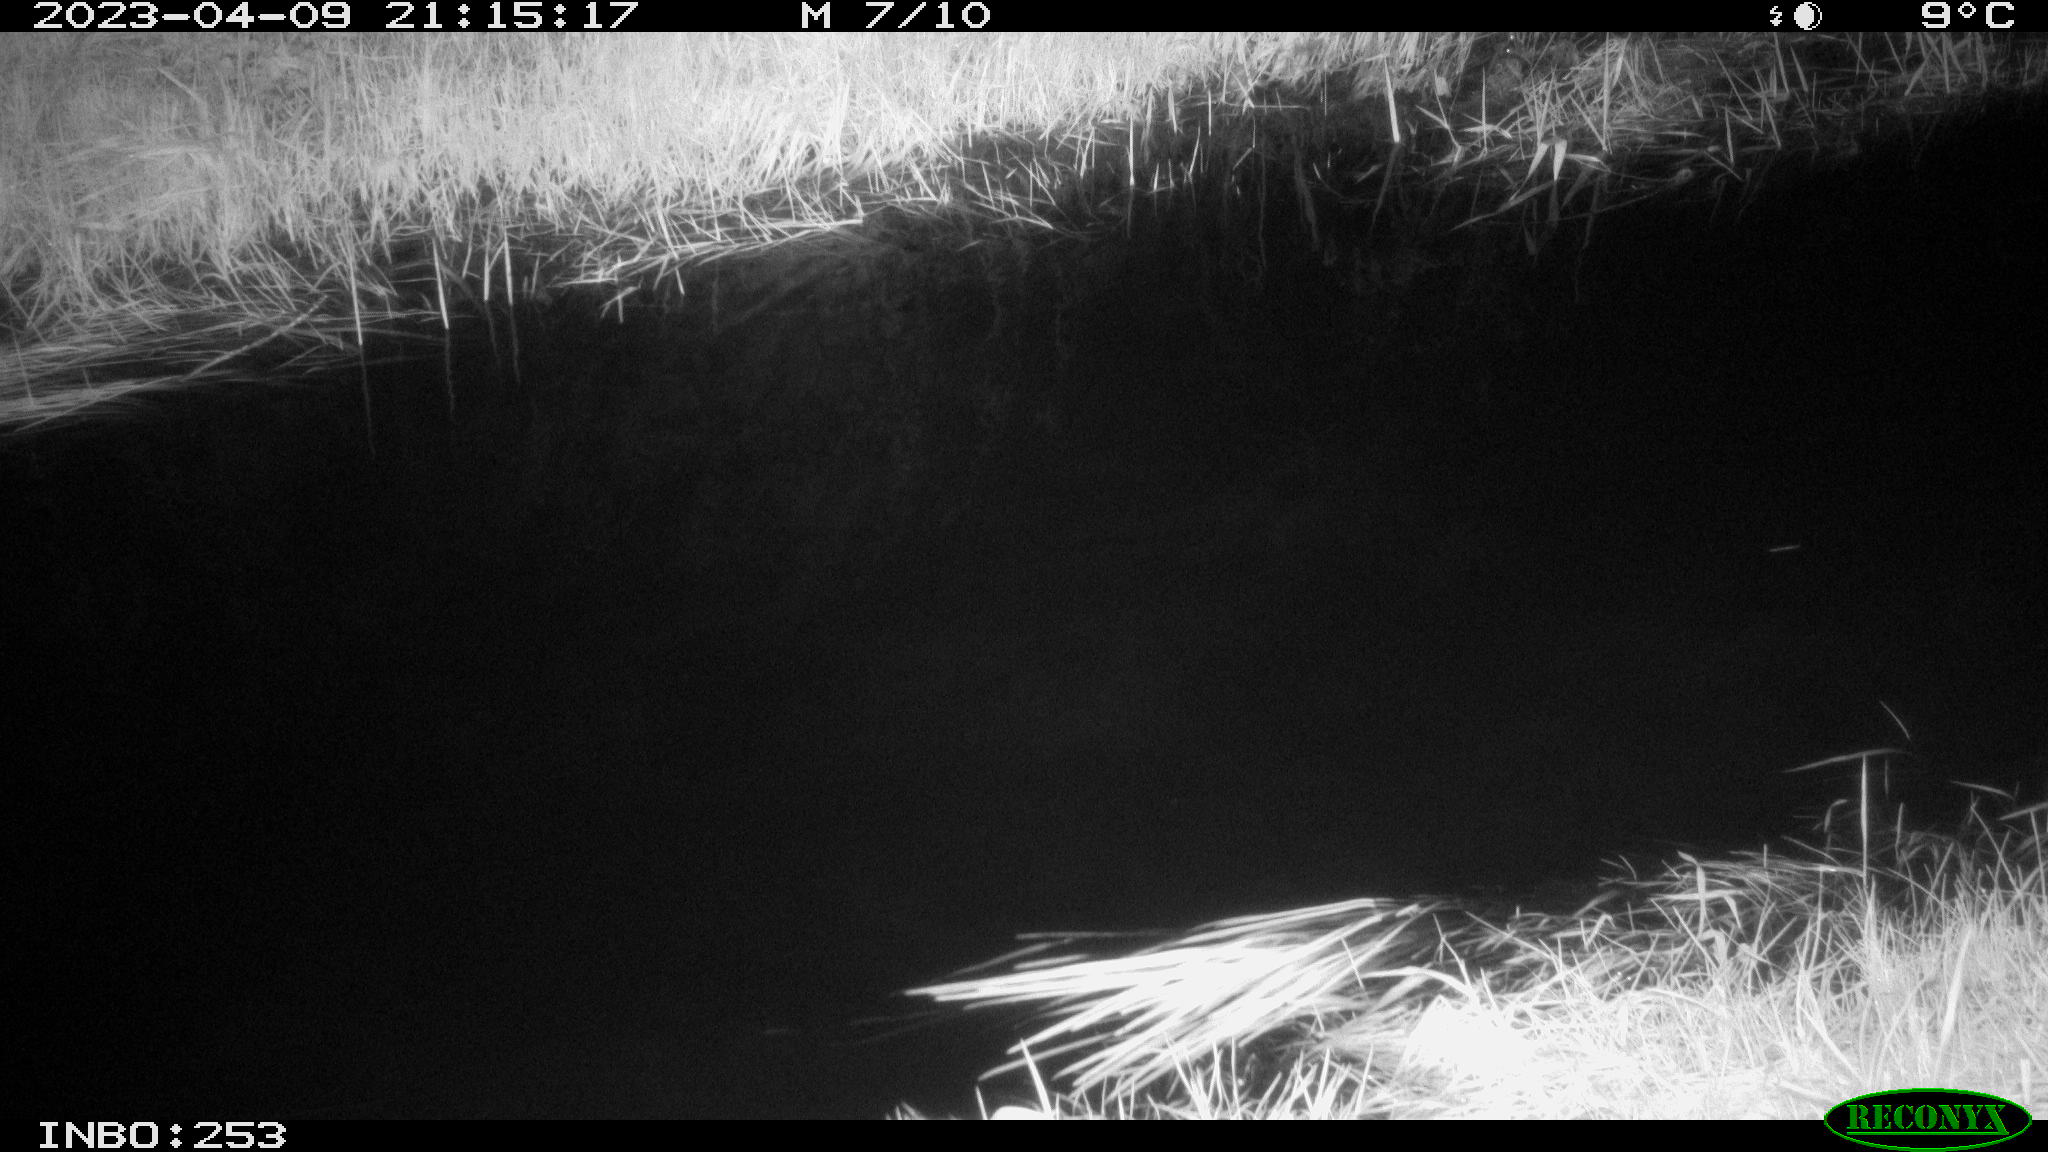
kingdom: Animalia
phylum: Chordata
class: Aves
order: Anseriformes
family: Anatidae
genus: Anas
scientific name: Anas
